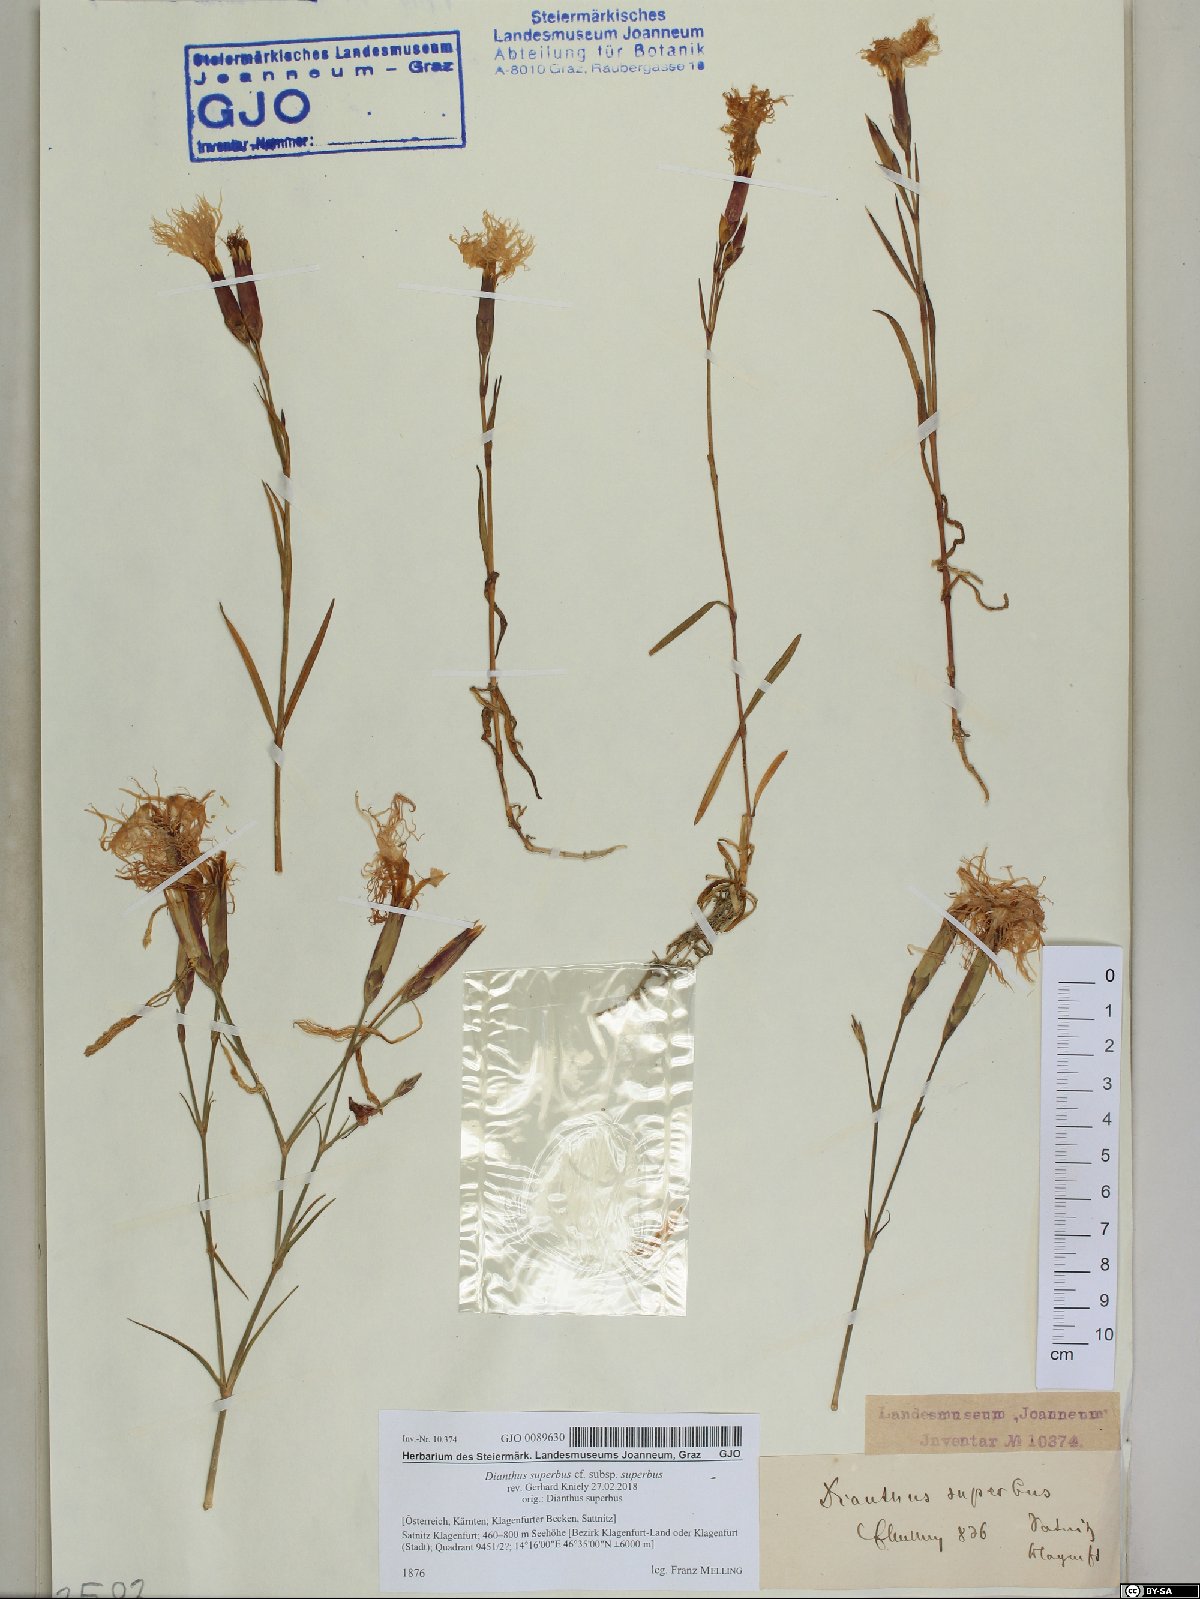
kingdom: Plantae
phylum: Tracheophyta
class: Magnoliopsida
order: Caryophyllales
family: Caryophyllaceae
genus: Dianthus
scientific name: Dianthus superbus
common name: Fringed pink
